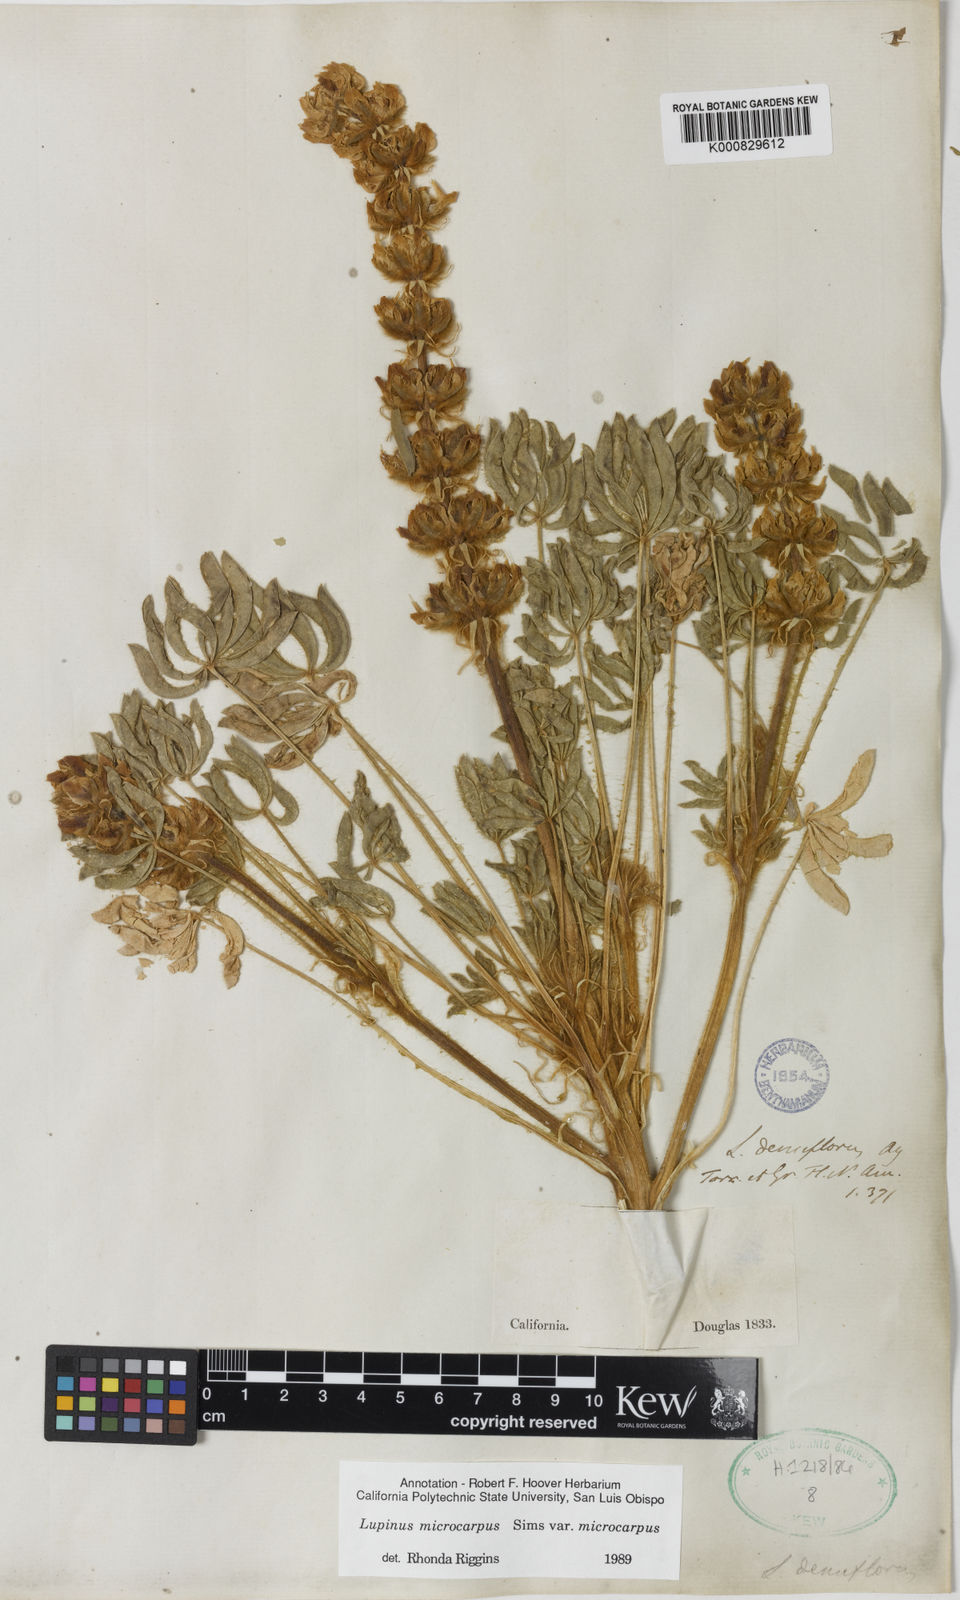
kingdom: Plantae
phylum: Tracheophyta
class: Magnoliopsida
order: Fabales
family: Fabaceae
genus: Lupinus
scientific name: Lupinus densiflorus
